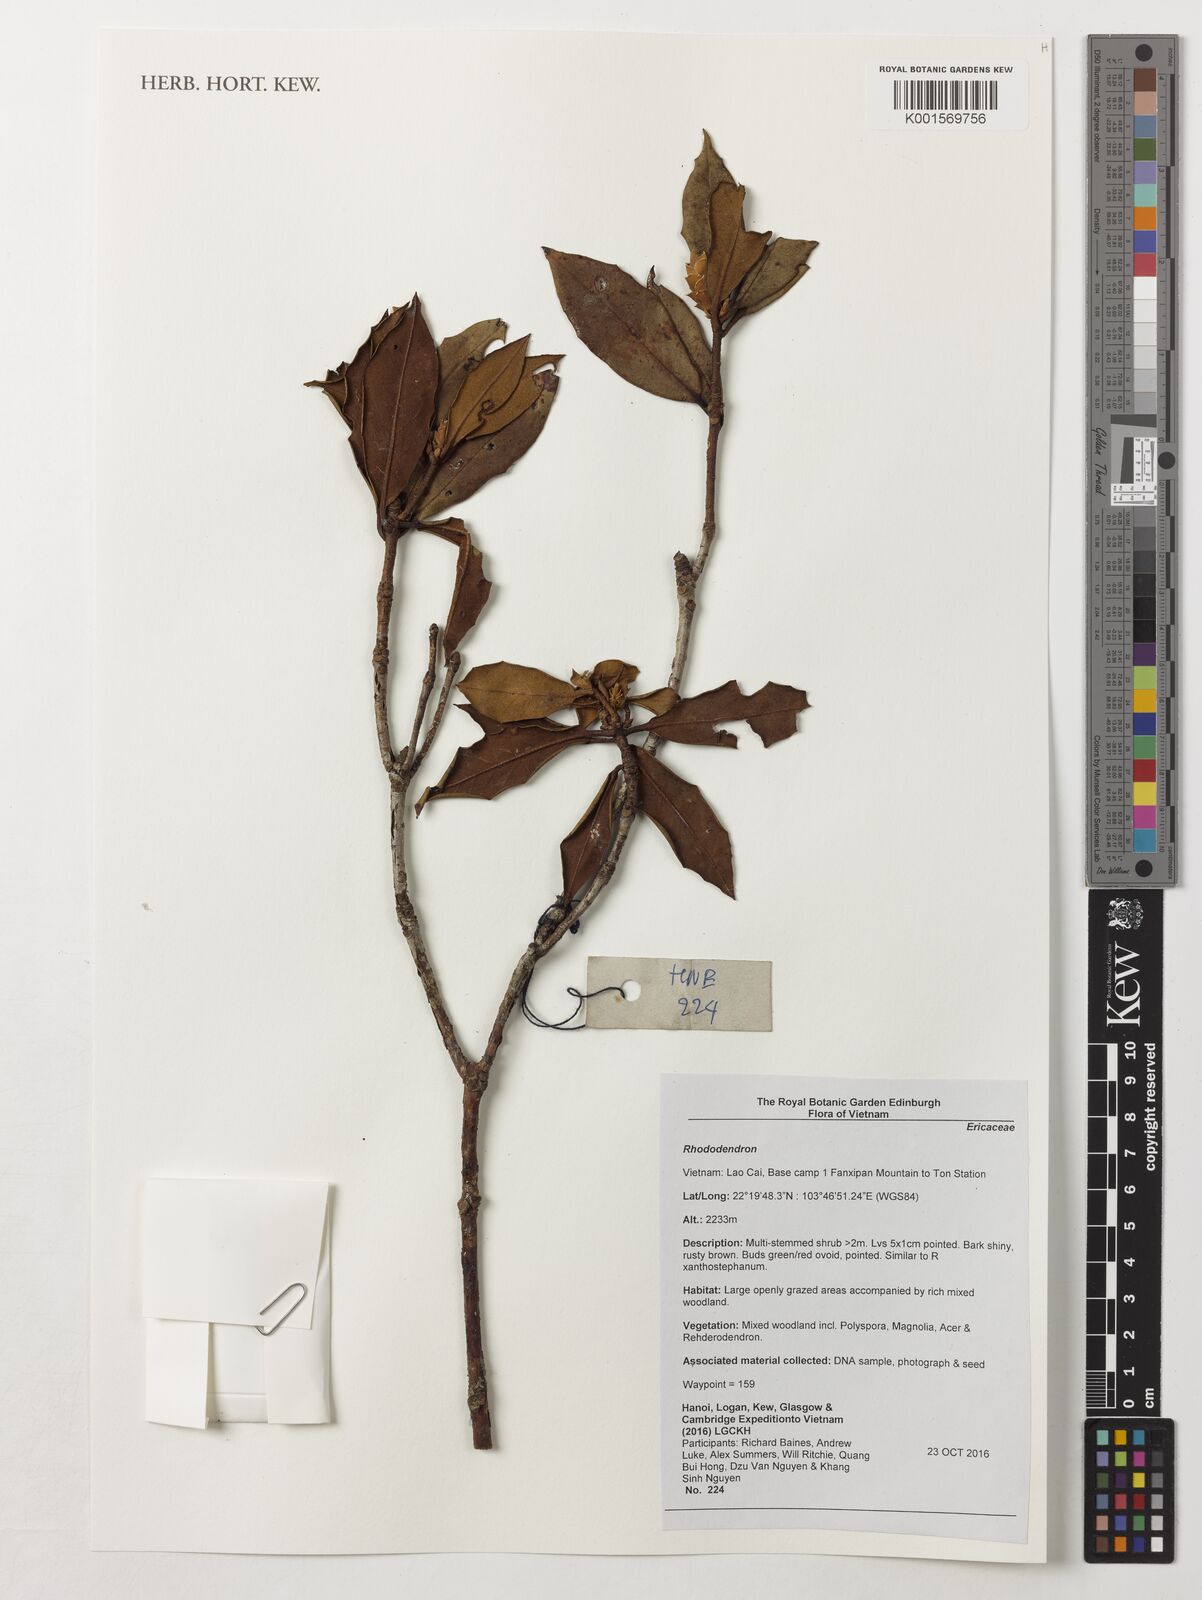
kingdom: Plantae
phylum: Tracheophyta
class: Magnoliopsida
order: Ericales
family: Ericaceae
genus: Rhododendron
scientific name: Rhododendron
